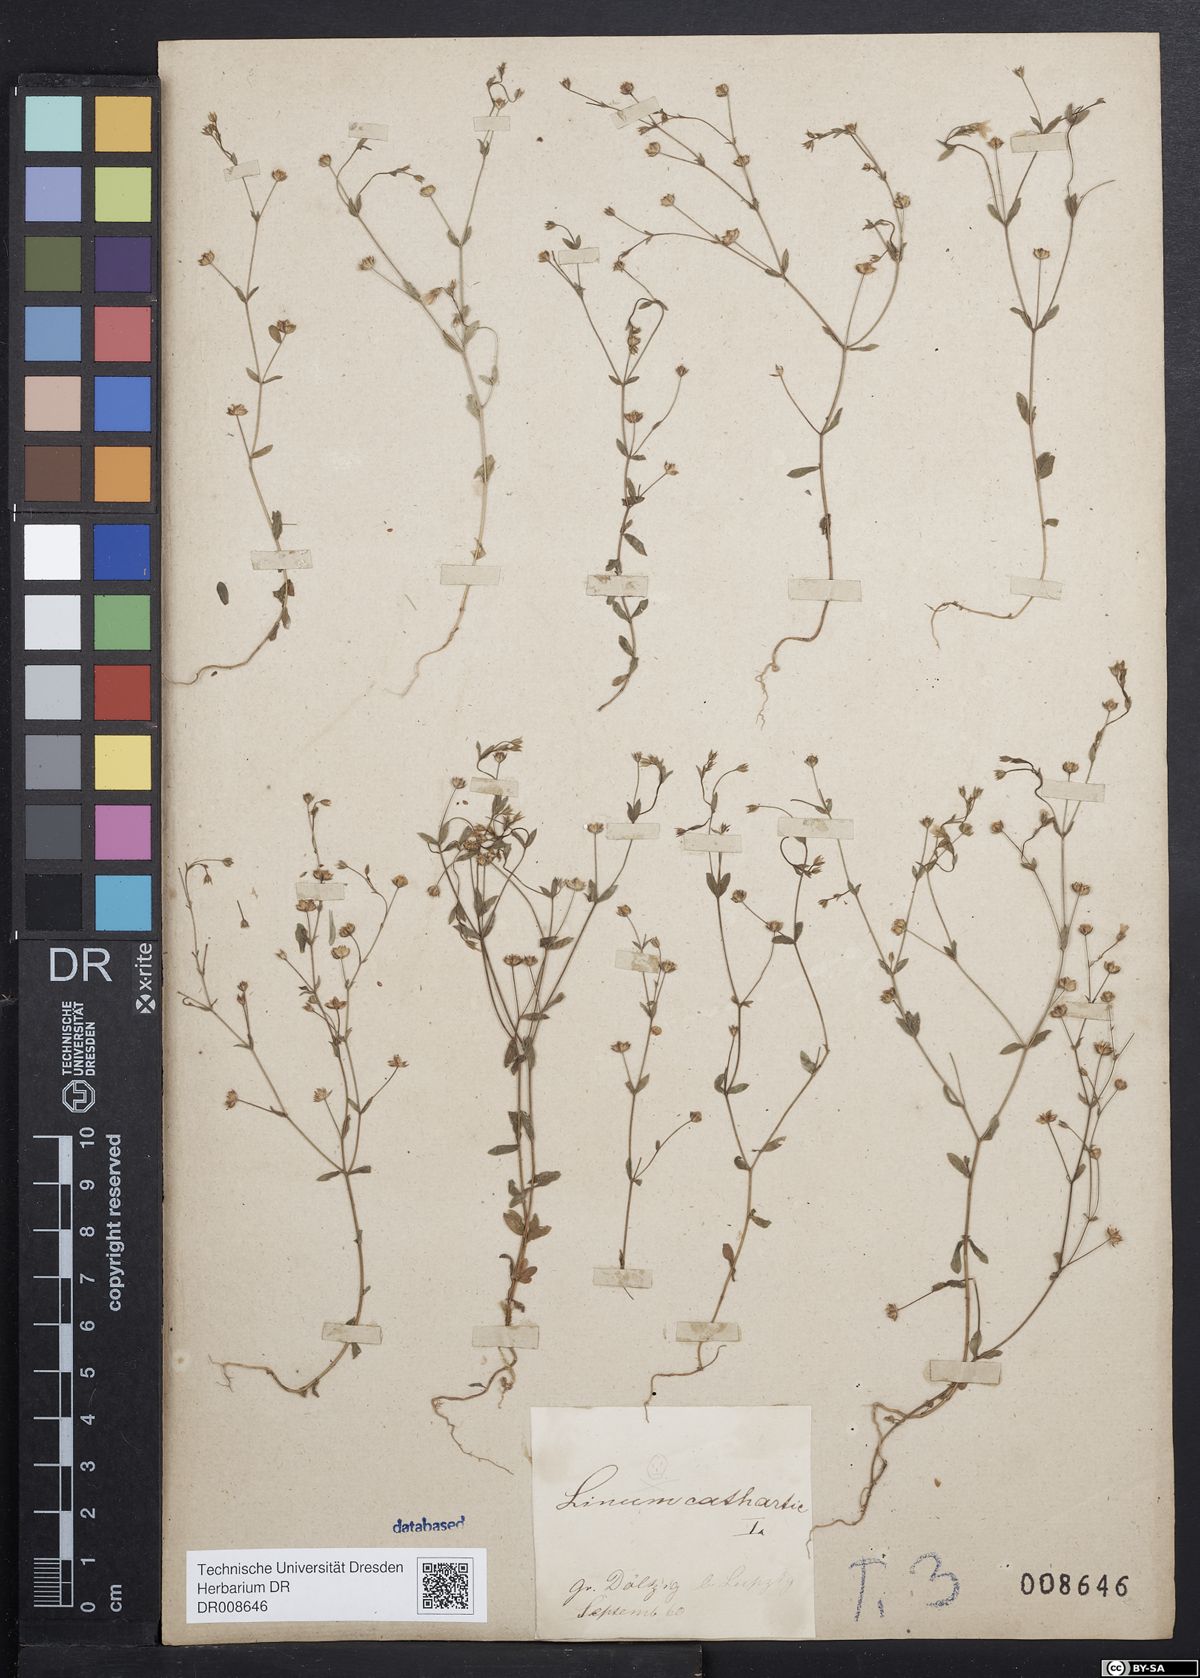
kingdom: Plantae
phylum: Tracheophyta
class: Magnoliopsida
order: Malpighiales
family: Linaceae
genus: Linum
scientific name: Linum catharticum
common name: Fairy flax
